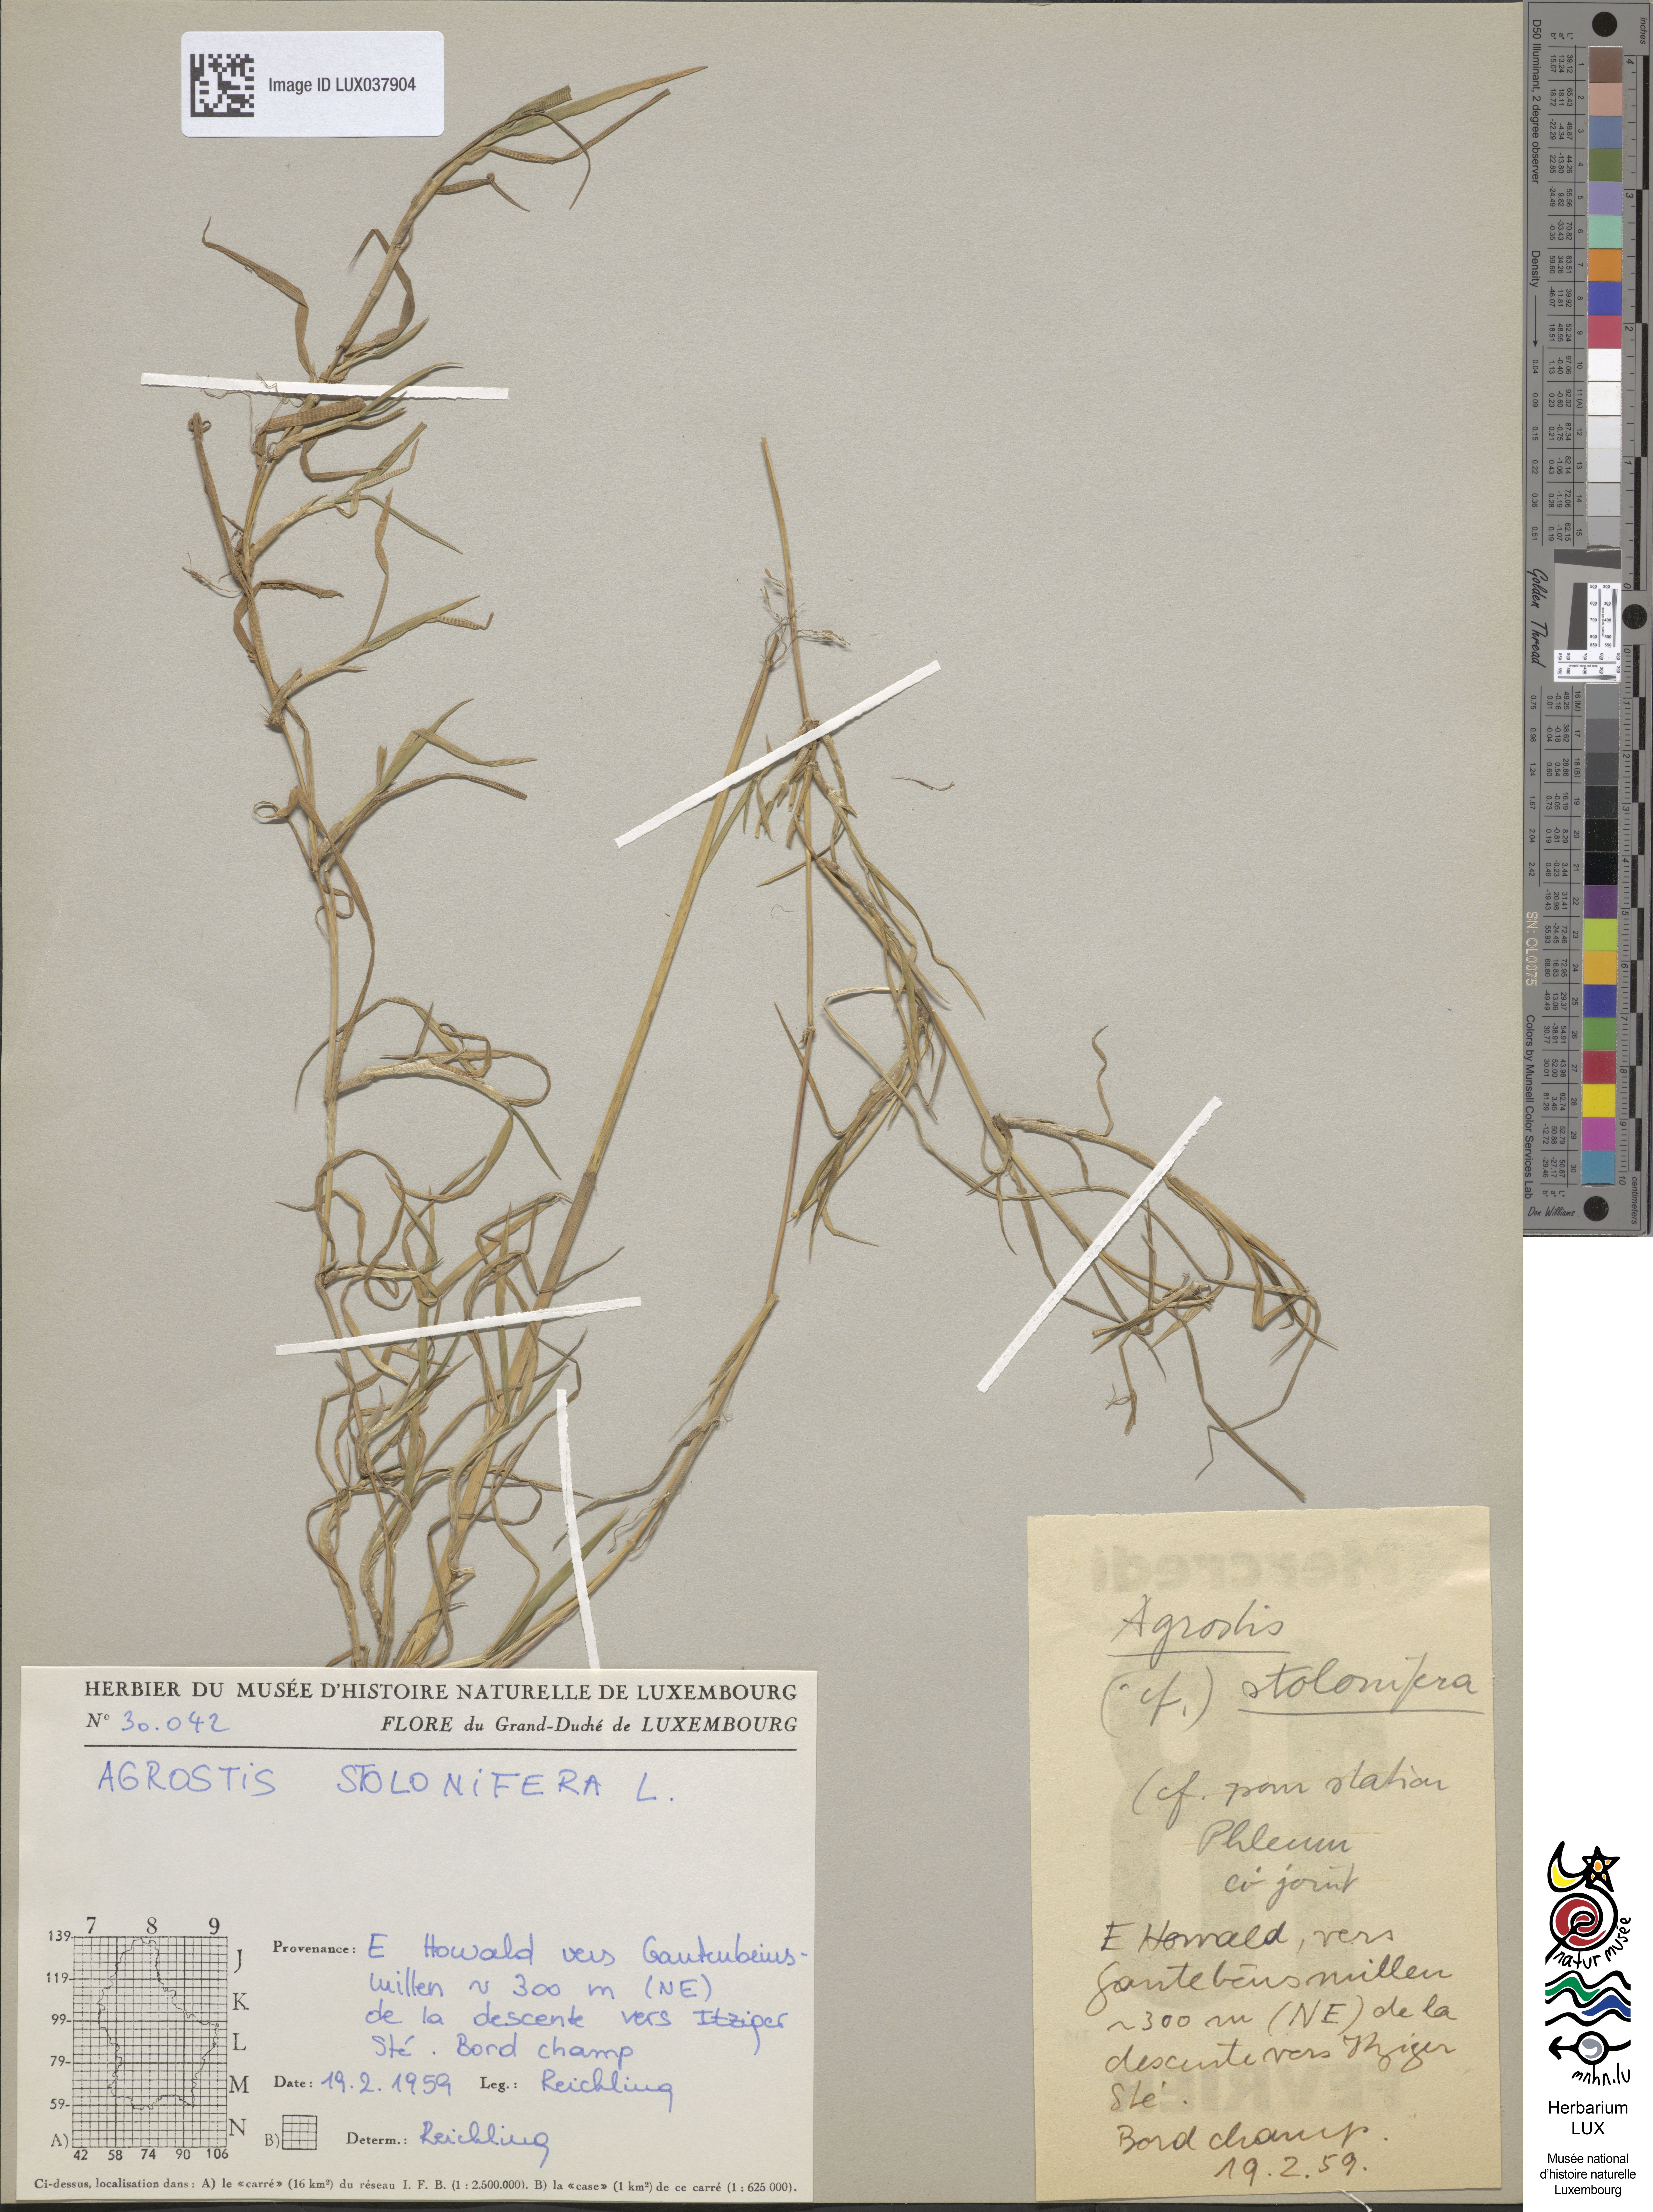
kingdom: Plantae
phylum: Tracheophyta
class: Liliopsida
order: Poales
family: Poaceae
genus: Poa
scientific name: Poa nemoralis
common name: Wood bluegrass
